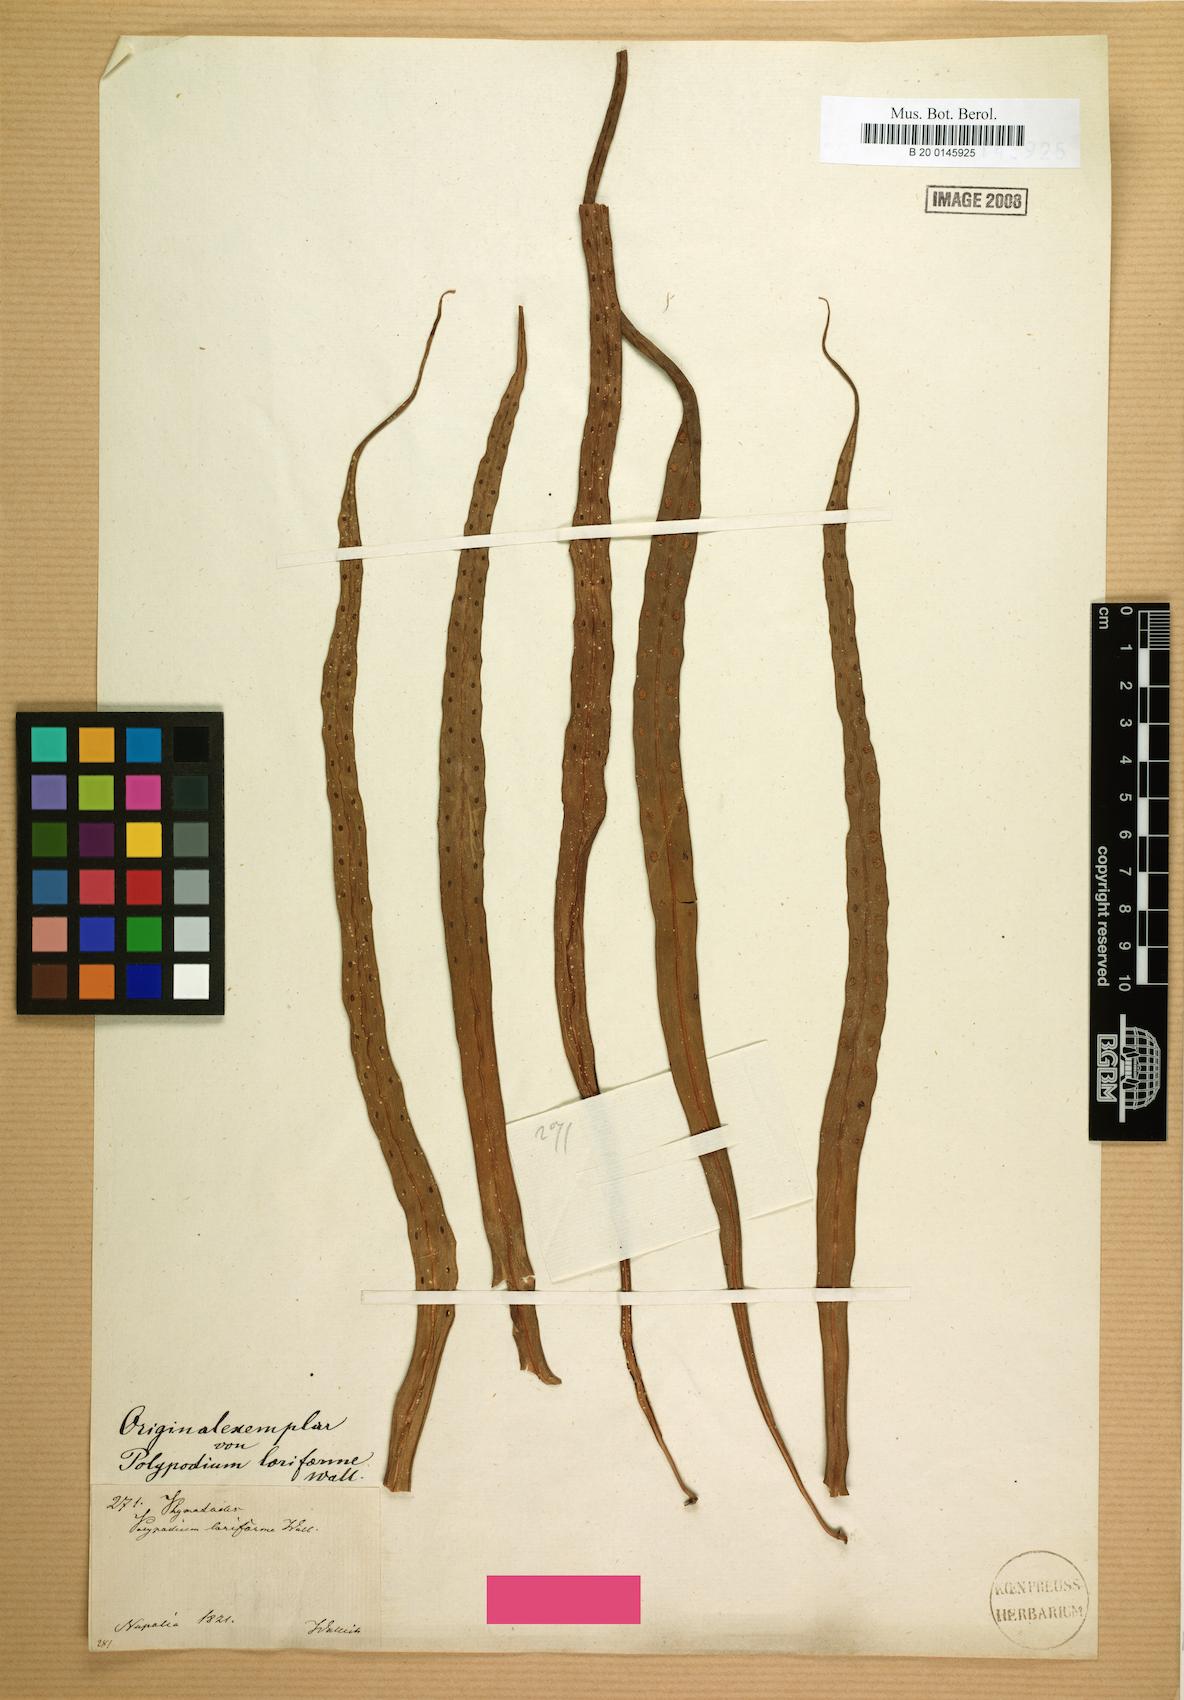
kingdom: Plantae
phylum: Tracheophyta
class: Polypodiopsida
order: Polypodiales
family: Polypodiaceae
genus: Lepisorus
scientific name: Lepisorus loriformis
